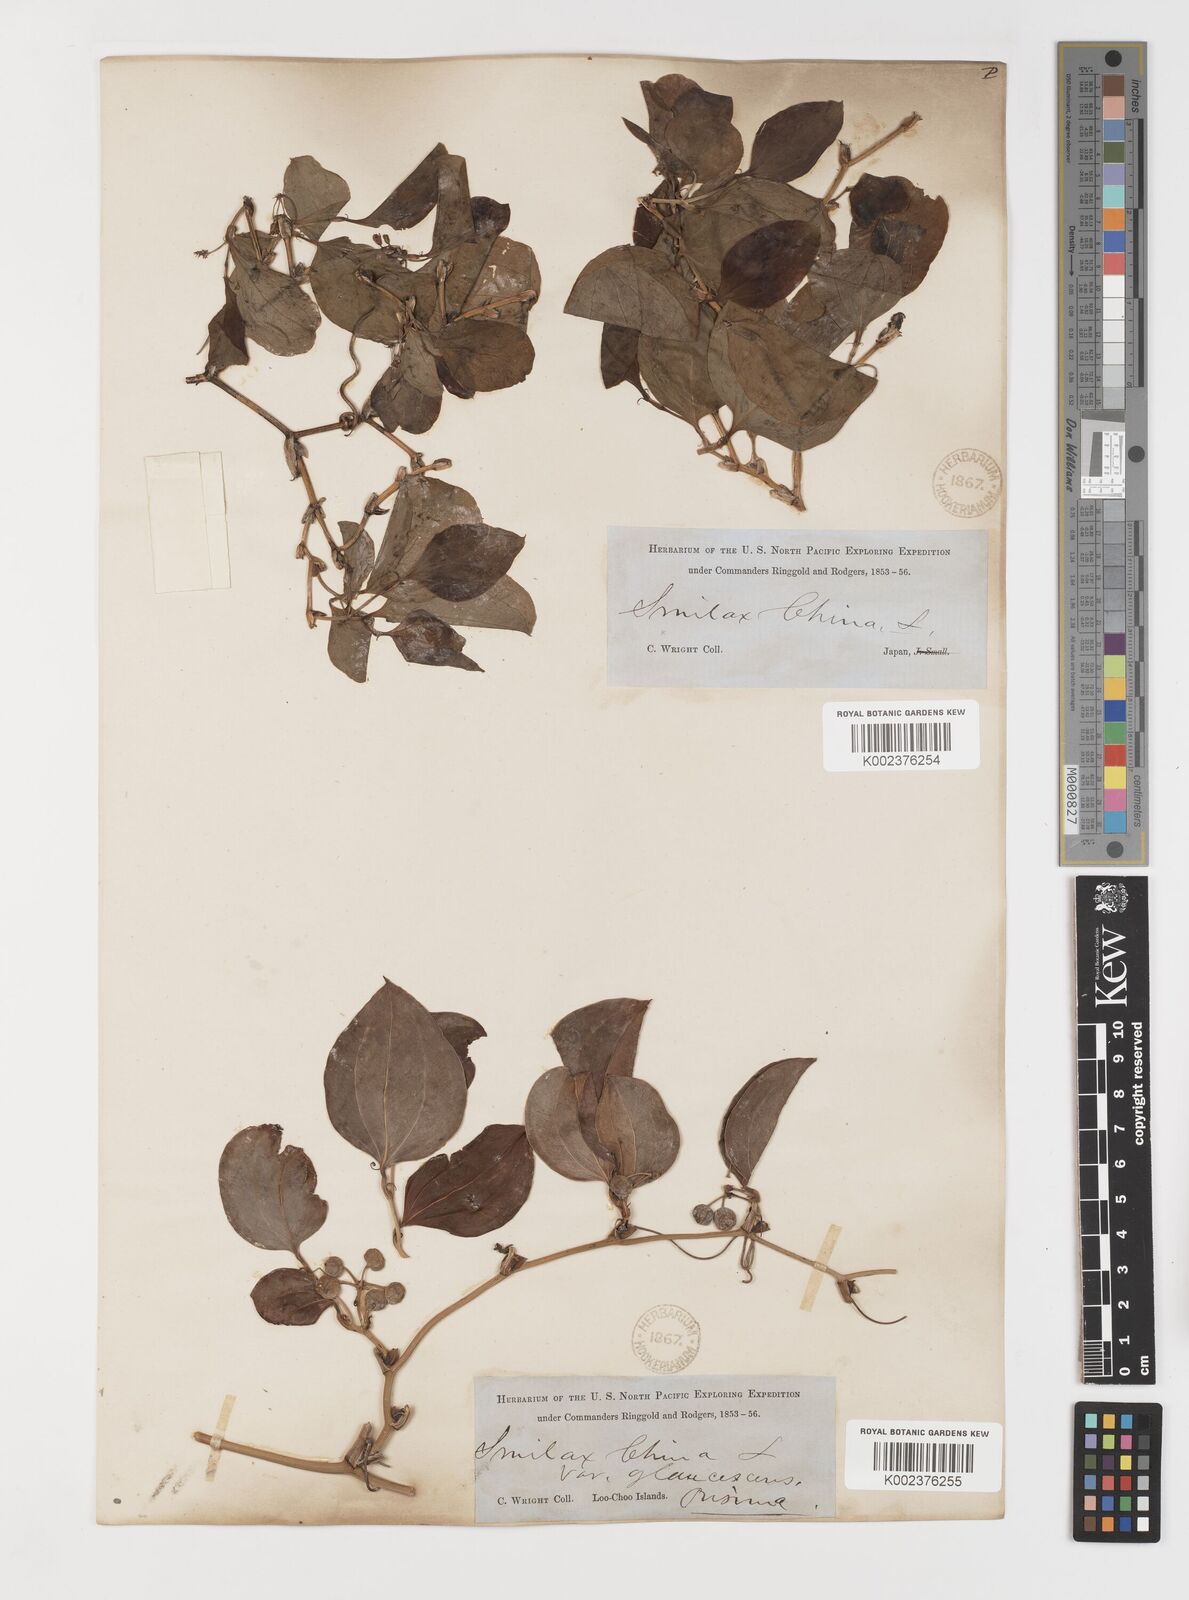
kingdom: Plantae
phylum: Tracheophyta
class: Liliopsida
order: Liliales
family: Smilacaceae
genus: Smilax
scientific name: Smilax china
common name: Chinaroot
